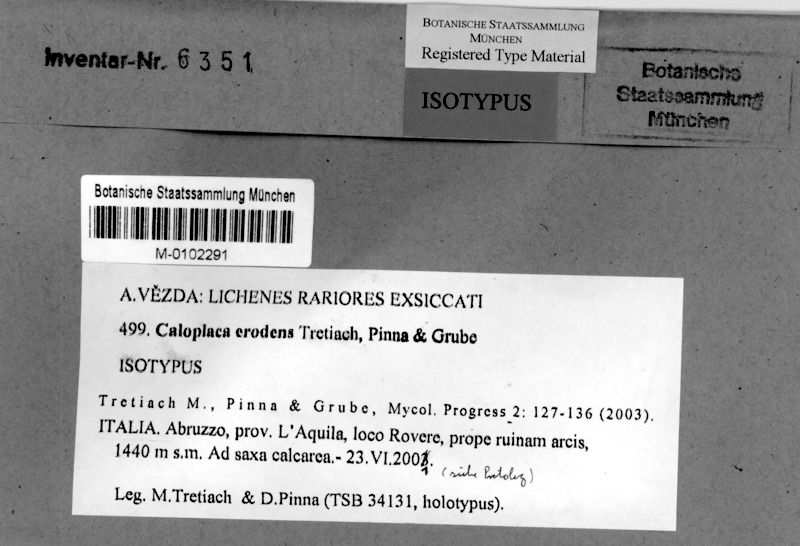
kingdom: Fungi
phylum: Ascomycota
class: Lecanoromycetes
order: Teloschistales
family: Teloschistaceae
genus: Pyrenodesmia
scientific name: Pyrenodesmia erodens
